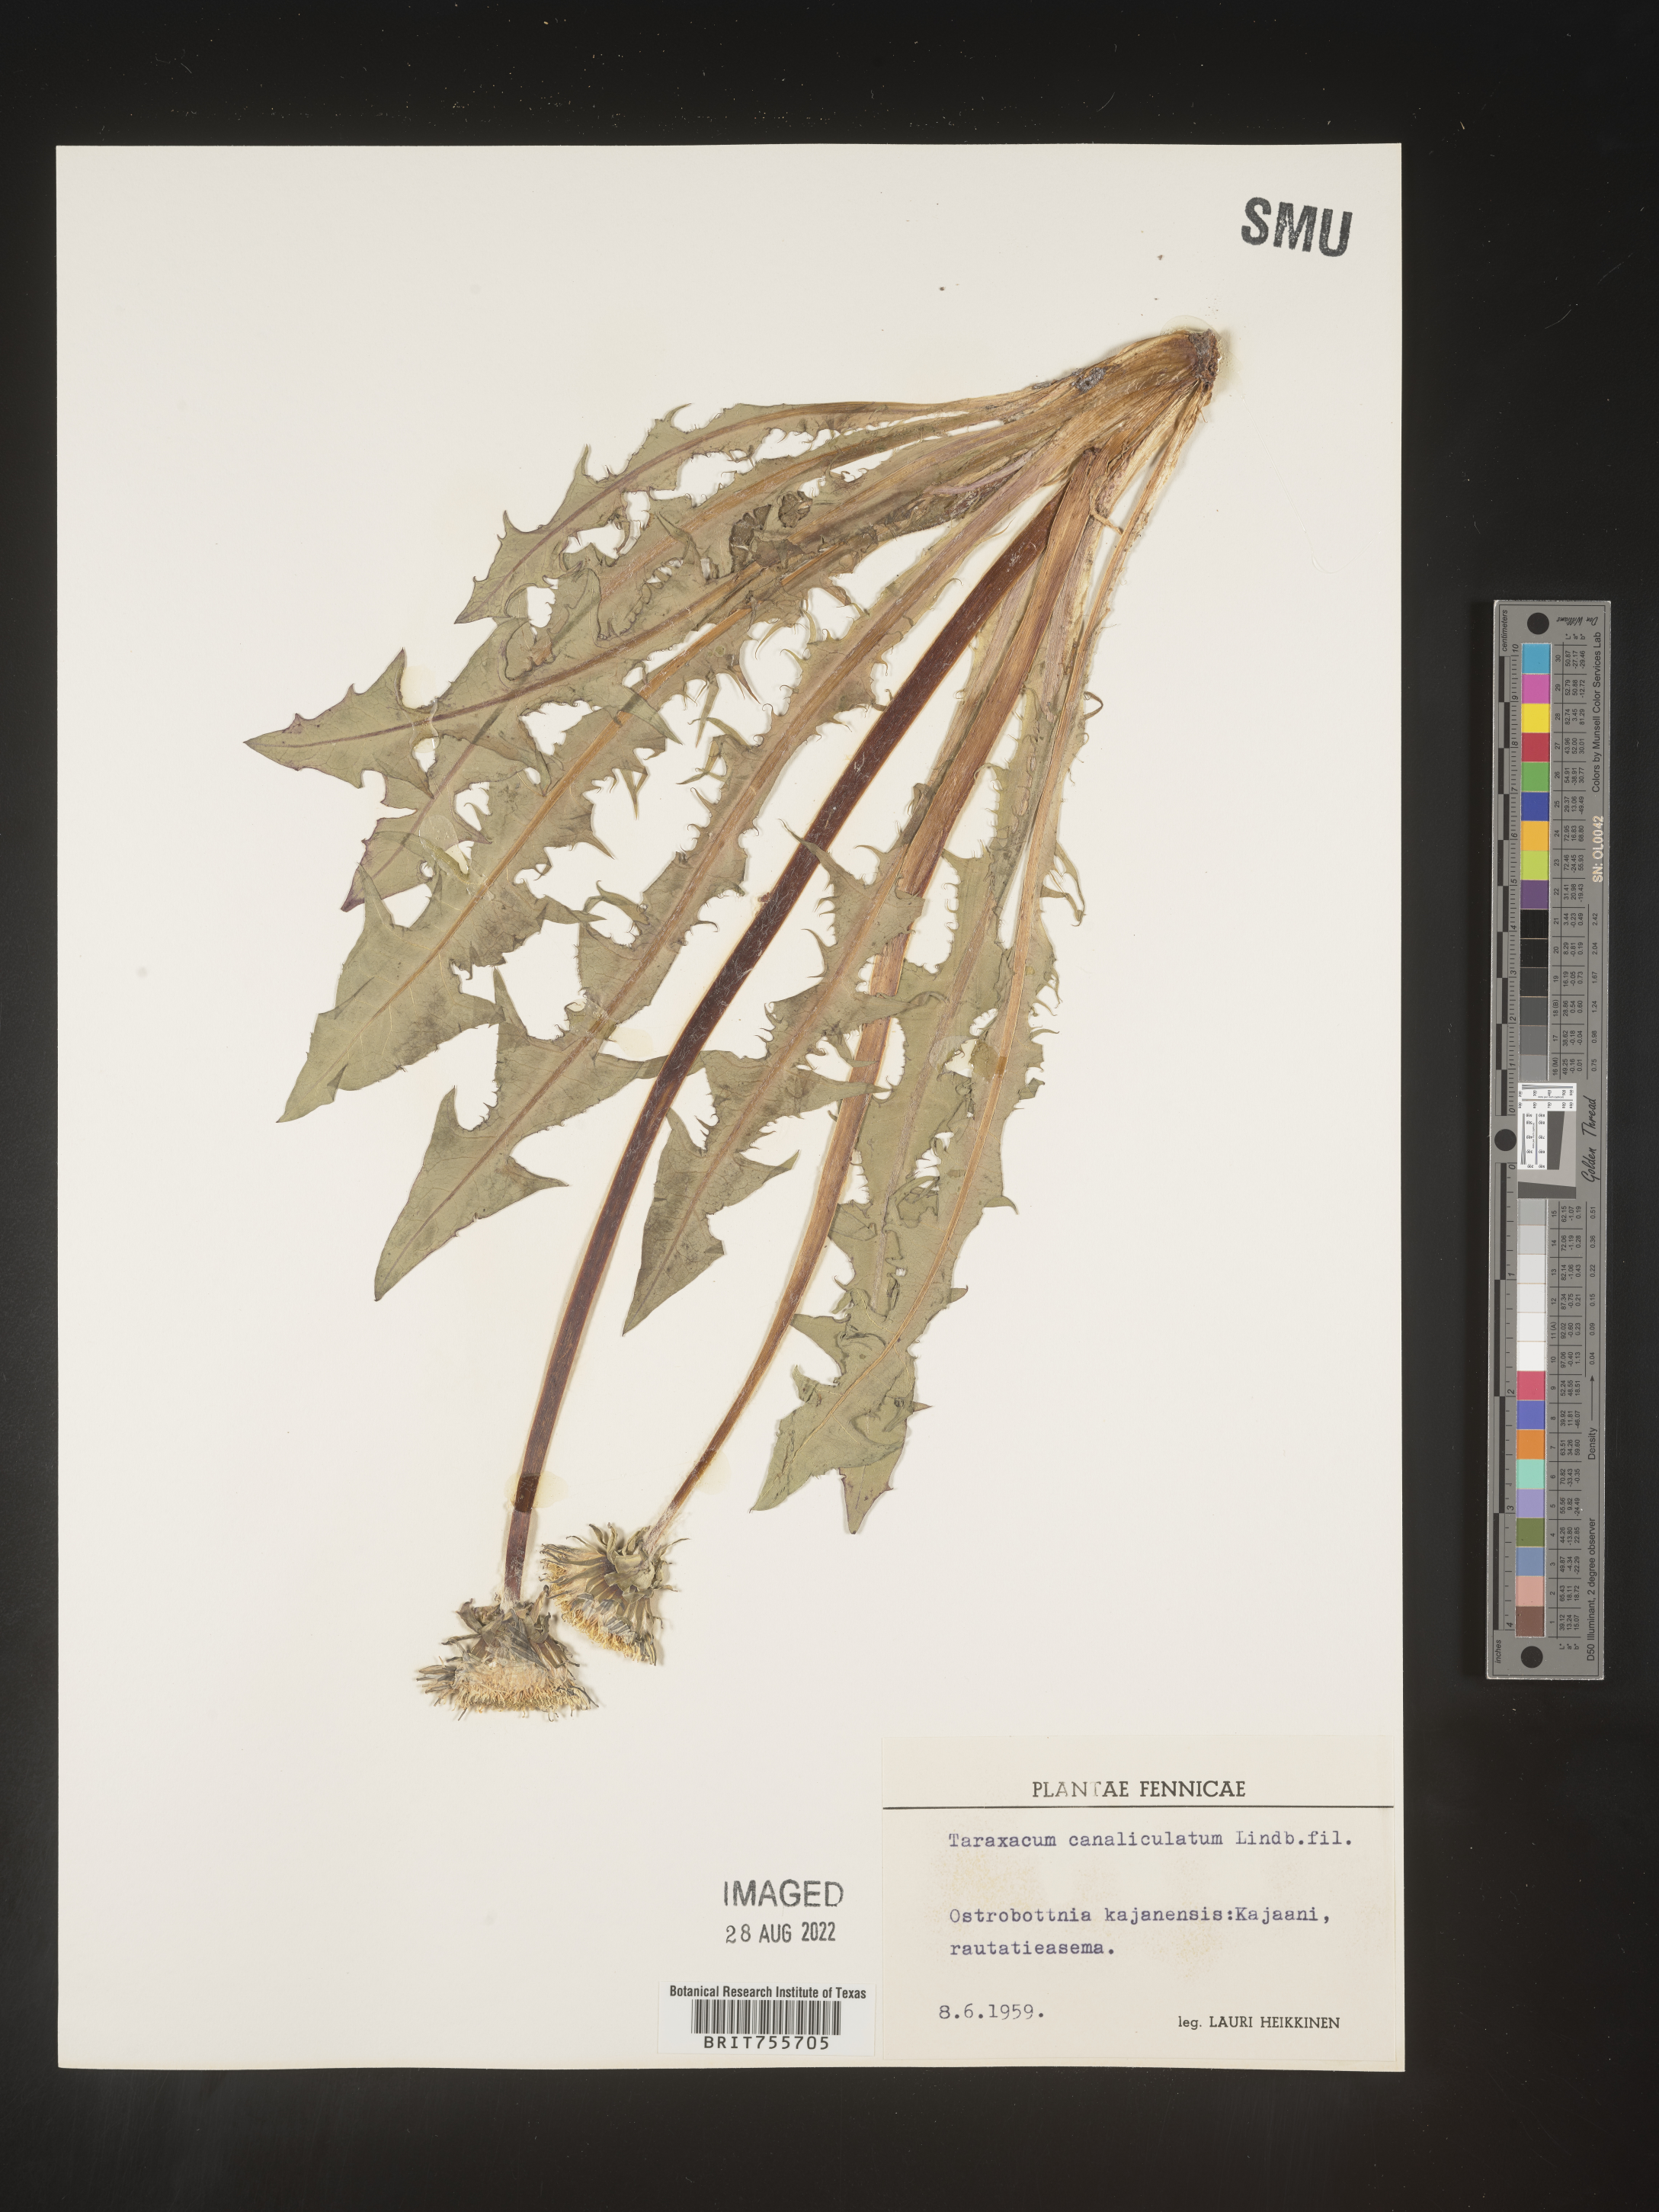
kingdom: Plantae
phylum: Tracheophyta
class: Magnoliopsida
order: Asterales
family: Asteraceae
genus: Taraxacum
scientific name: Taraxacum
